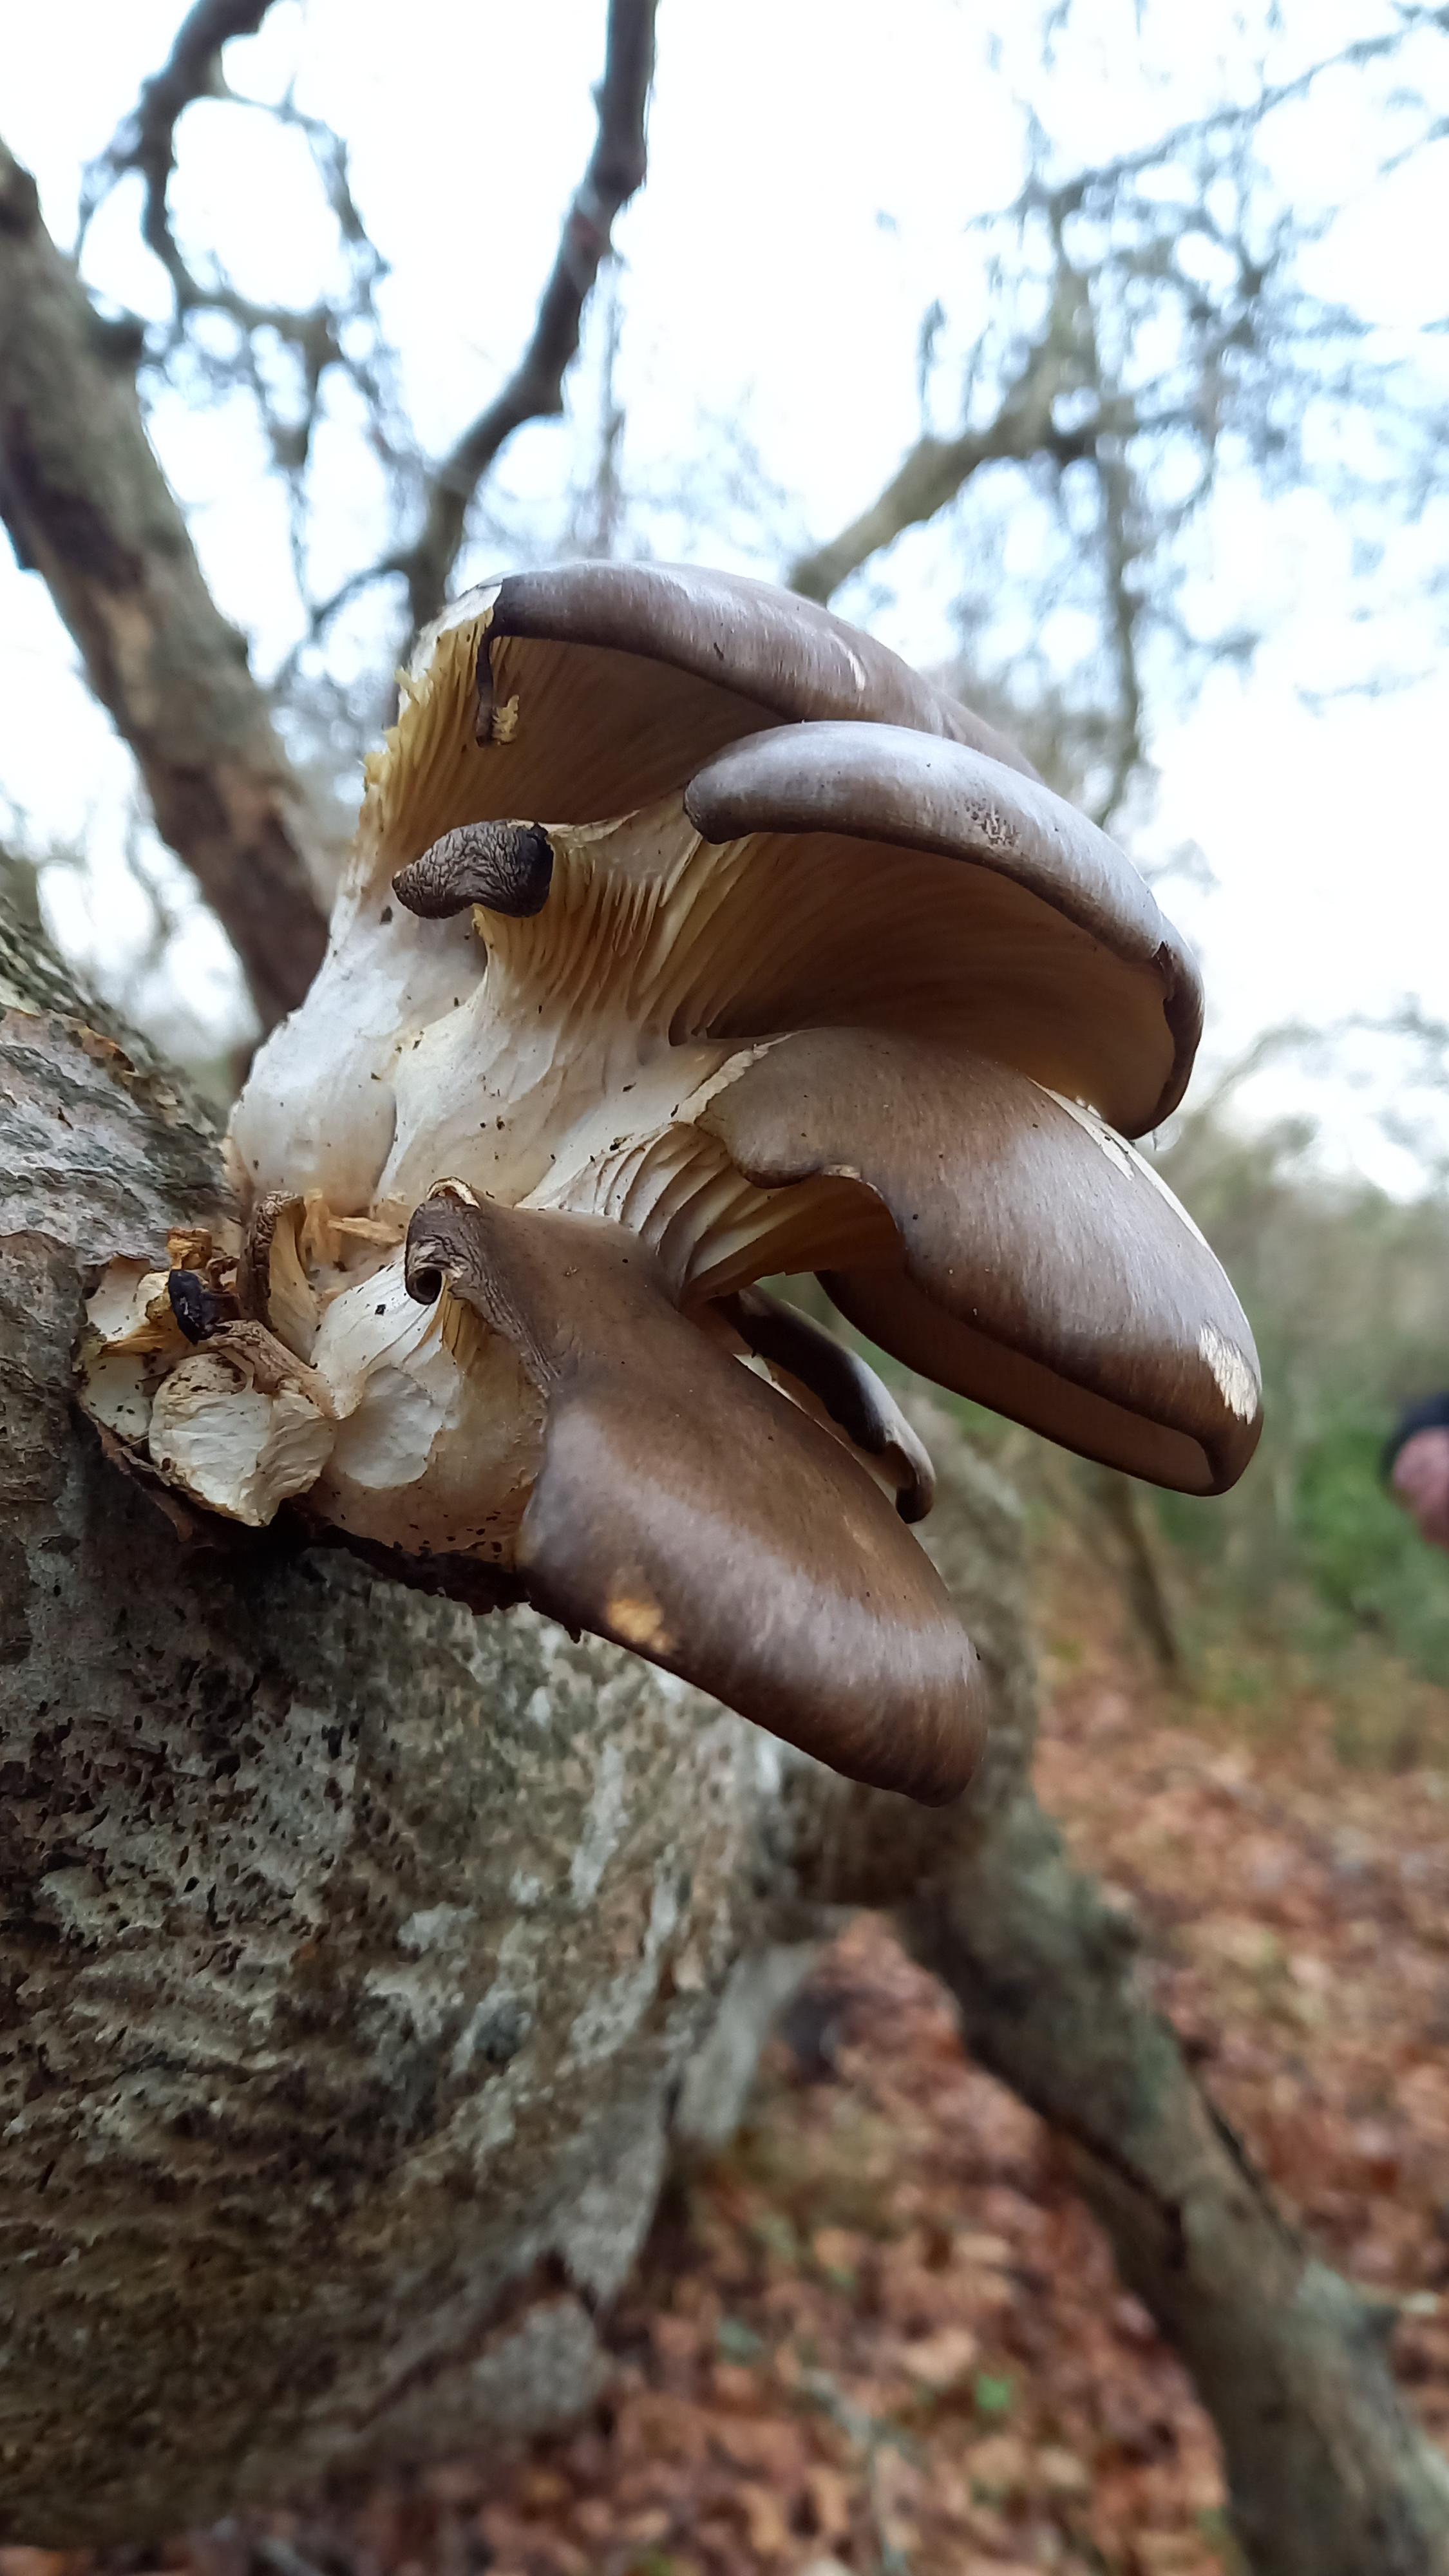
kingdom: Fungi
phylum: Basidiomycota
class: Agaricomycetes
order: Agaricales
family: Pleurotaceae
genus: Pleurotus
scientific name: Pleurotus ostreatus
